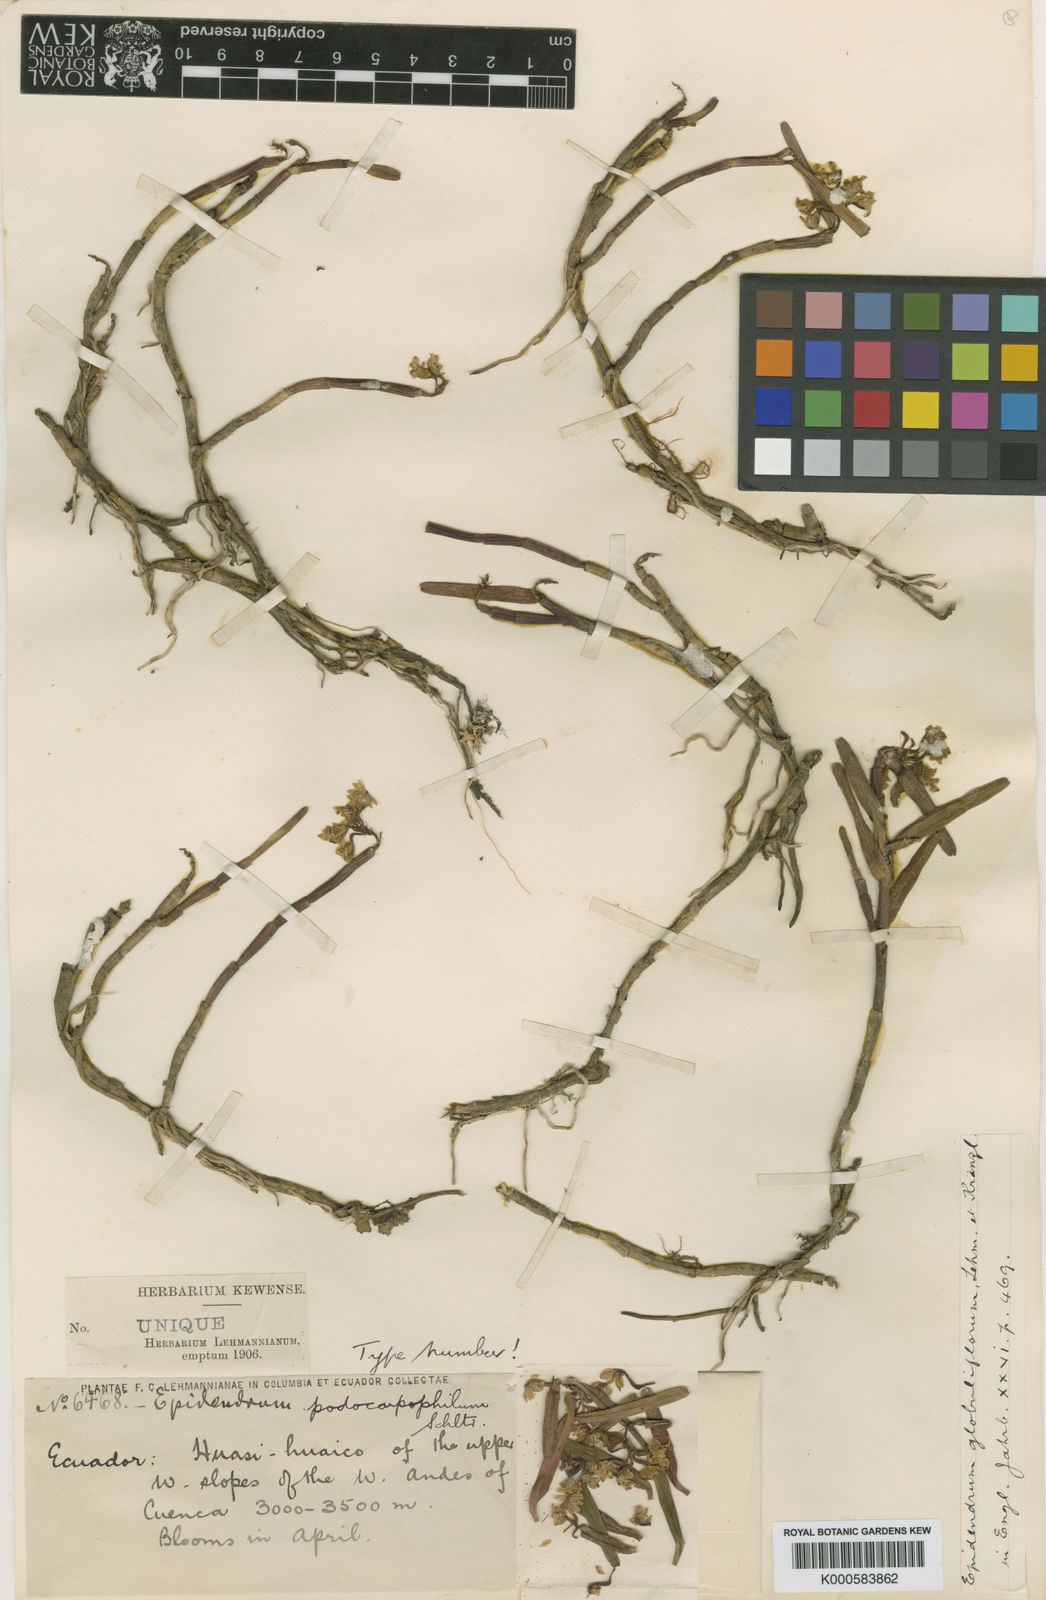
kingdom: Plantae
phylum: Tracheophyta
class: Liliopsida
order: Asparagales
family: Orchidaceae
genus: Epidendrum
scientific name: Epidendrum podocarpophilum
